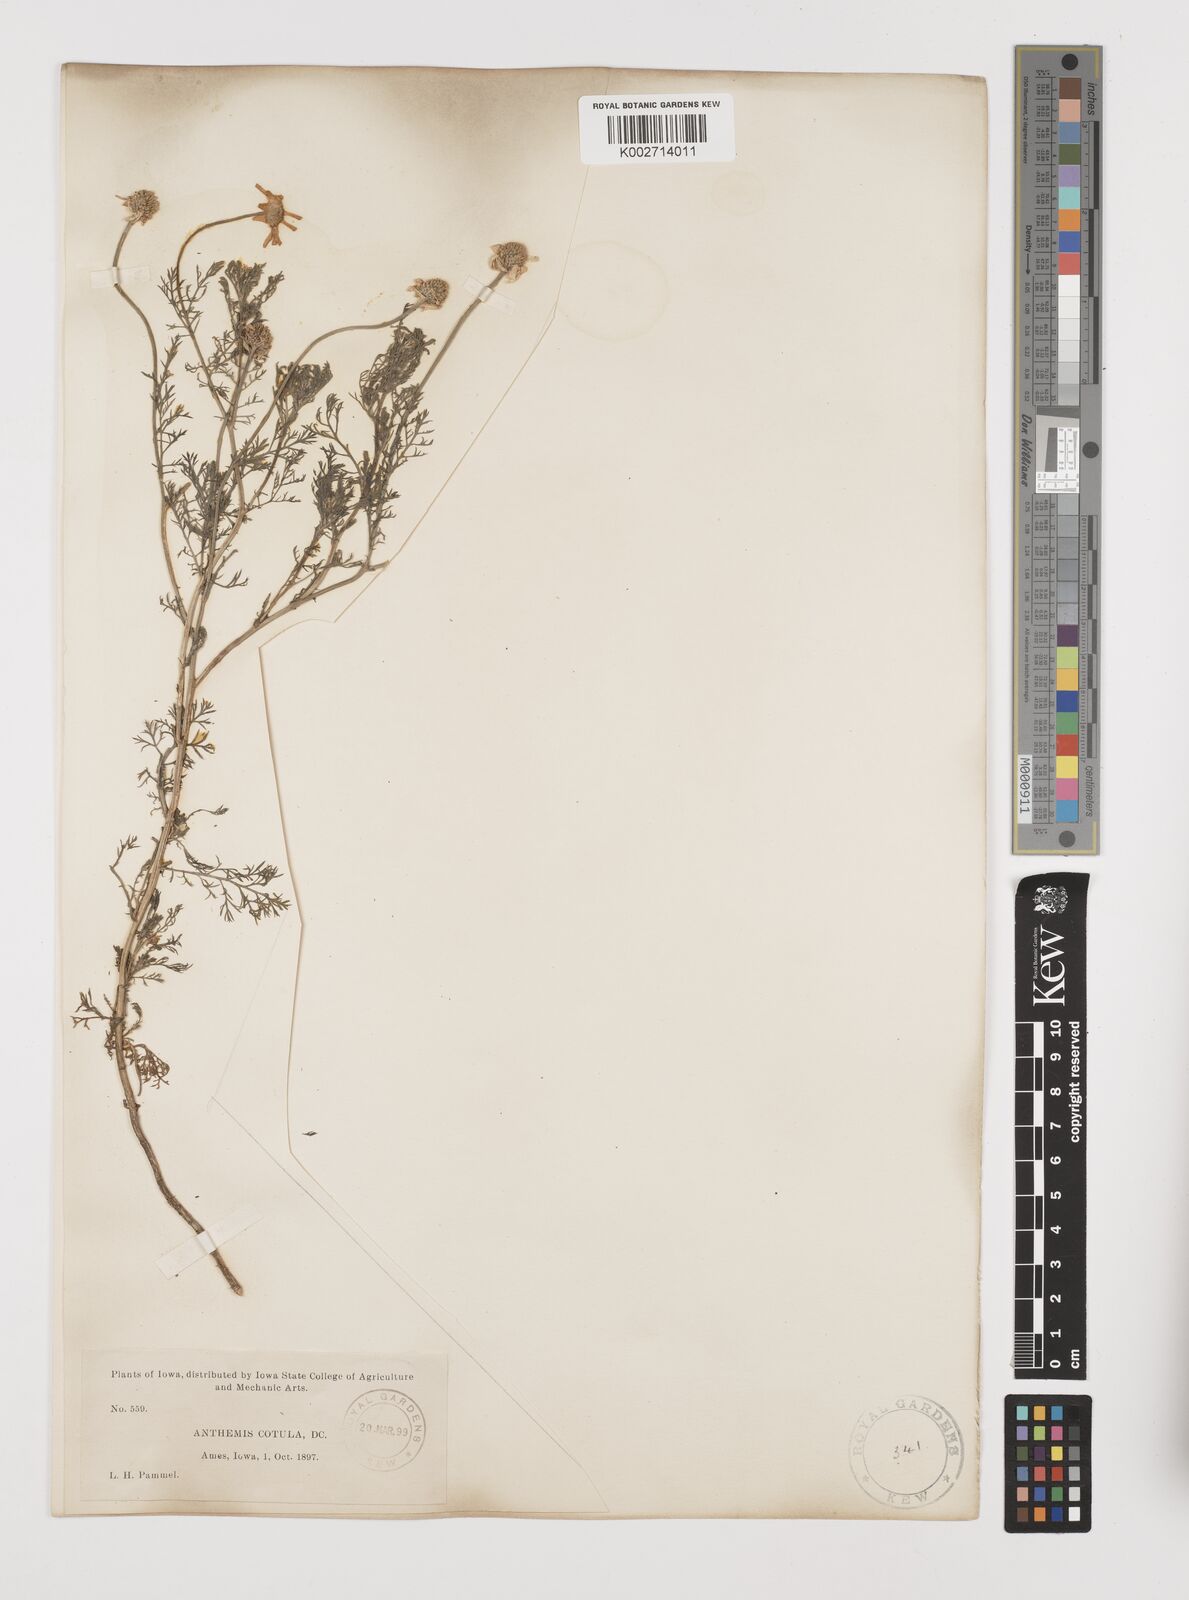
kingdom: Plantae
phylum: Tracheophyta
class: Magnoliopsida
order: Asterales
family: Asteraceae
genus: Anthemis
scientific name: Anthemis cotula
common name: Stinking chamomile
